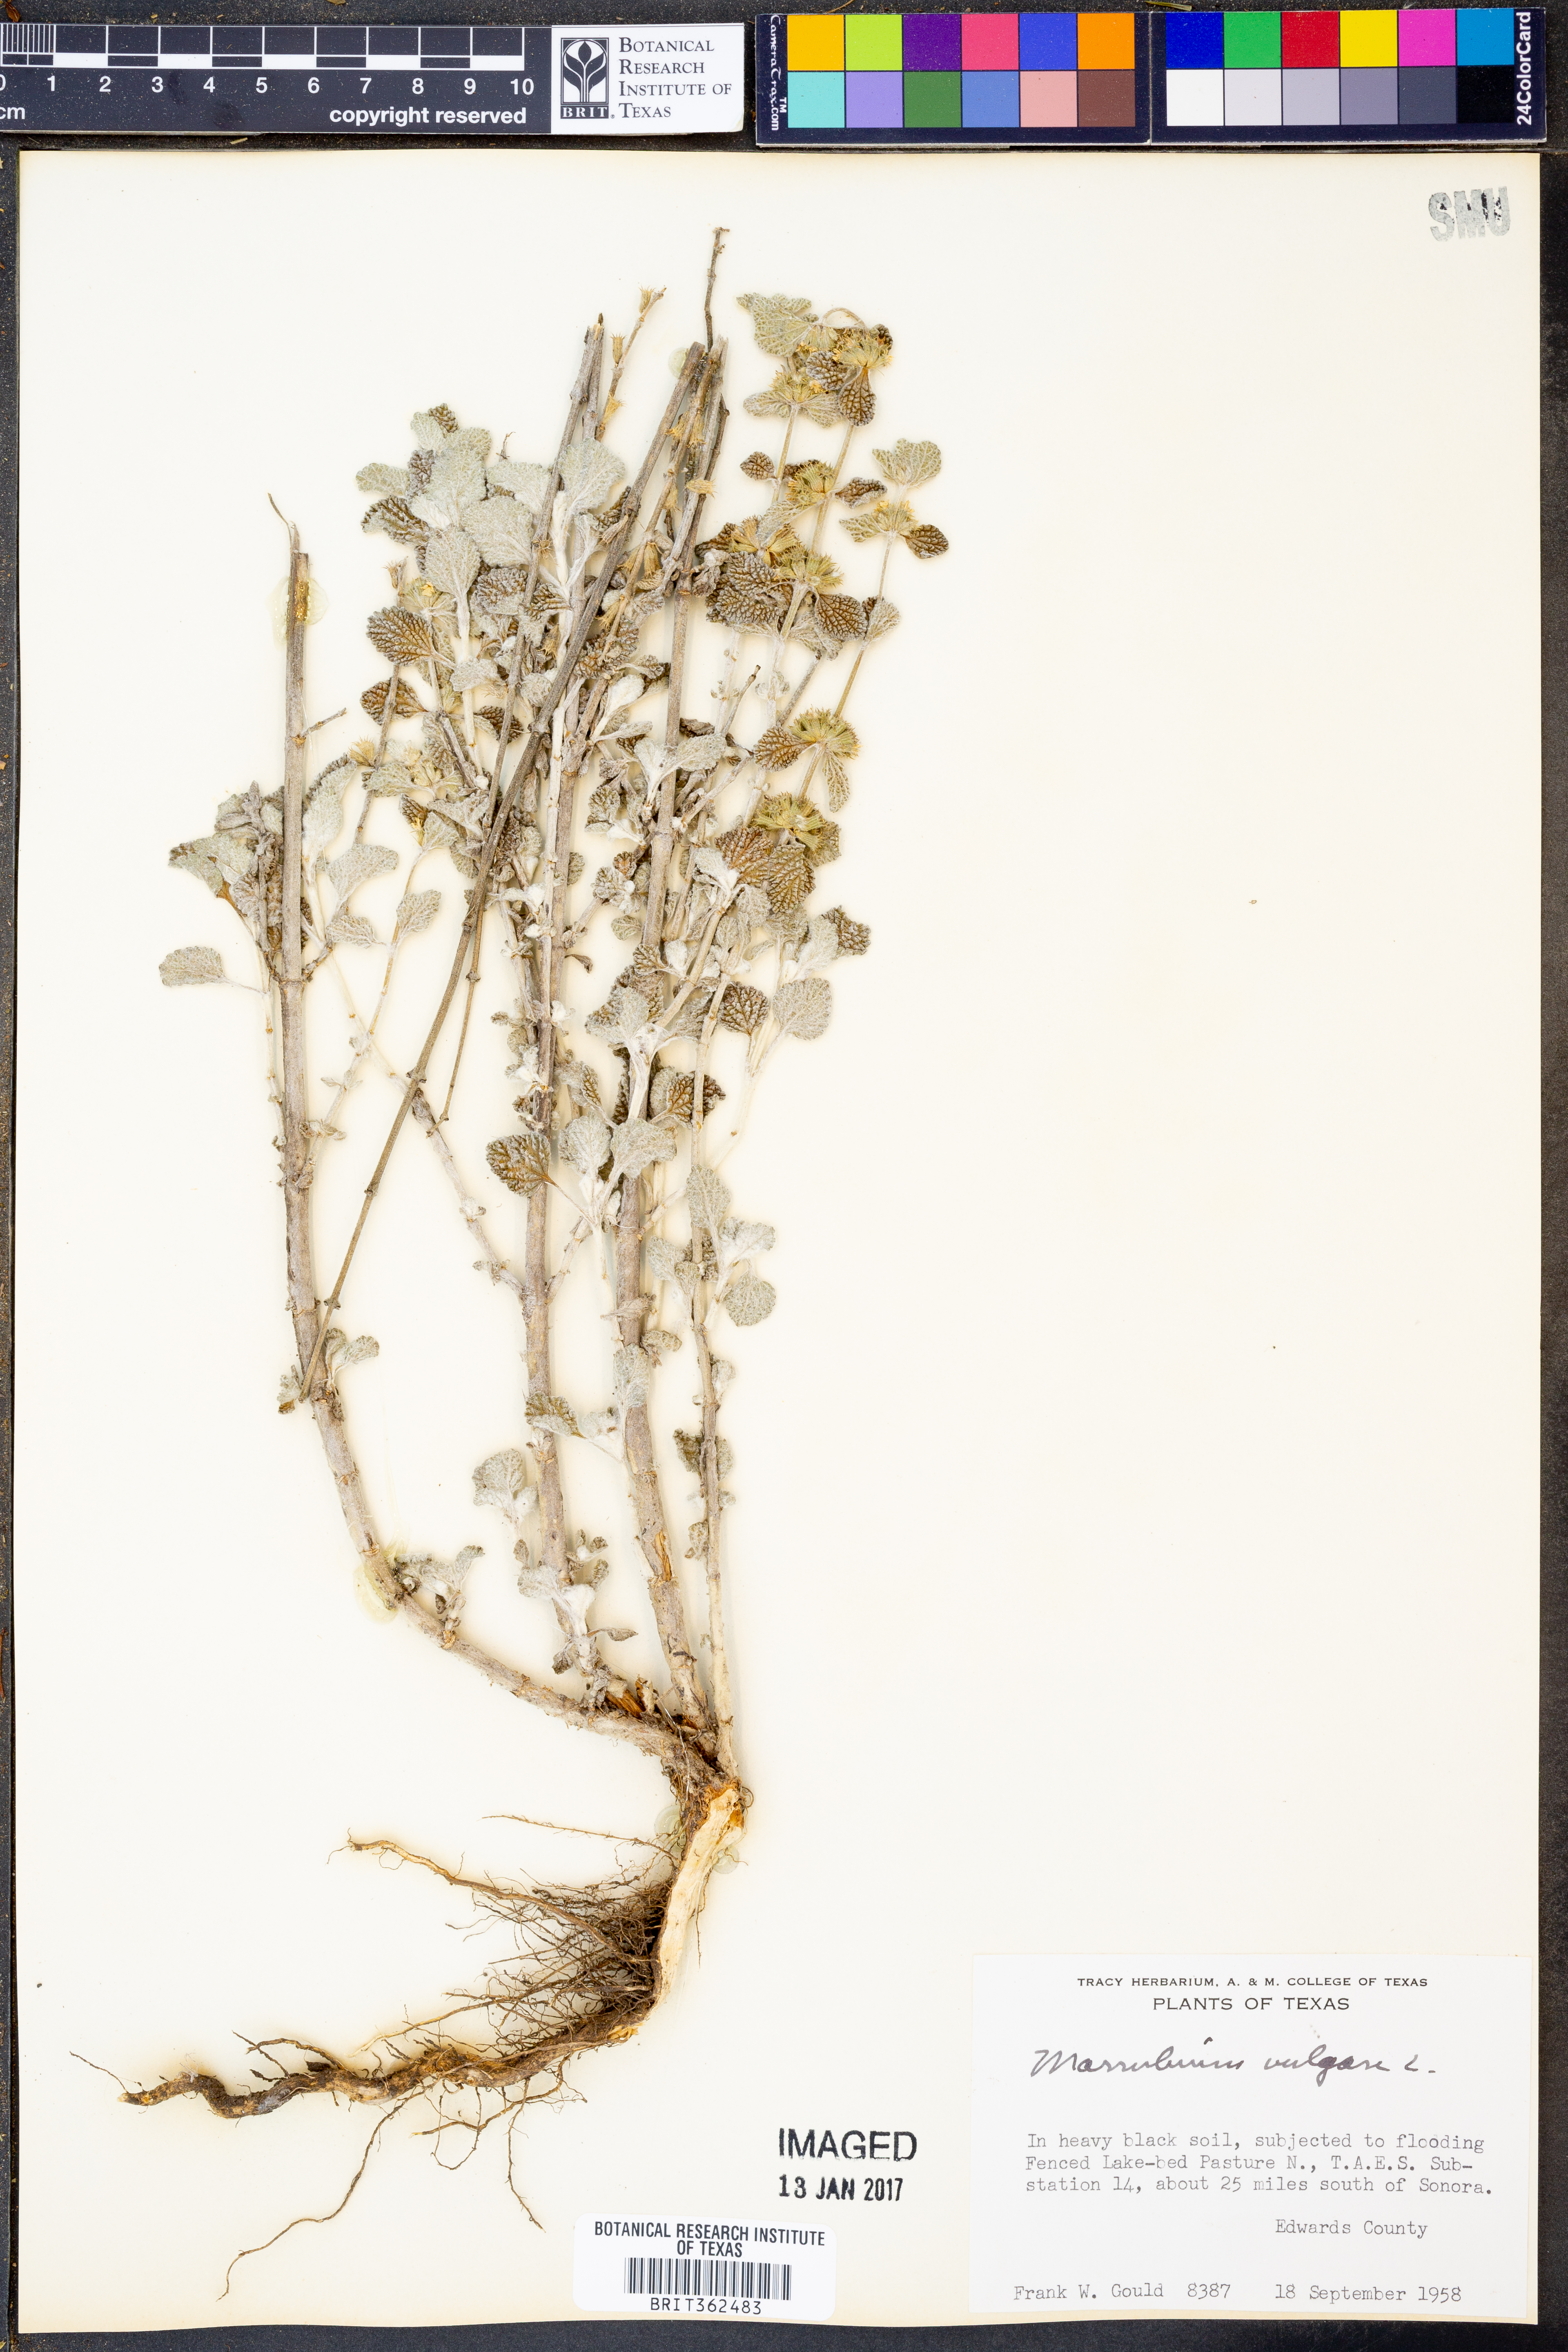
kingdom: Plantae
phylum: Tracheophyta
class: Magnoliopsida
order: Lamiales
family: Lamiaceae
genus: Marrubium
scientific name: Marrubium vulgare
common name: Horehound
